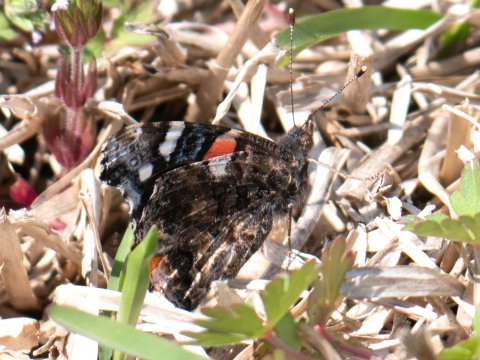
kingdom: Animalia
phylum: Arthropoda
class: Insecta
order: Lepidoptera
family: Nymphalidae
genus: Vanessa
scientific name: Vanessa atalanta
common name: Red Admiral
